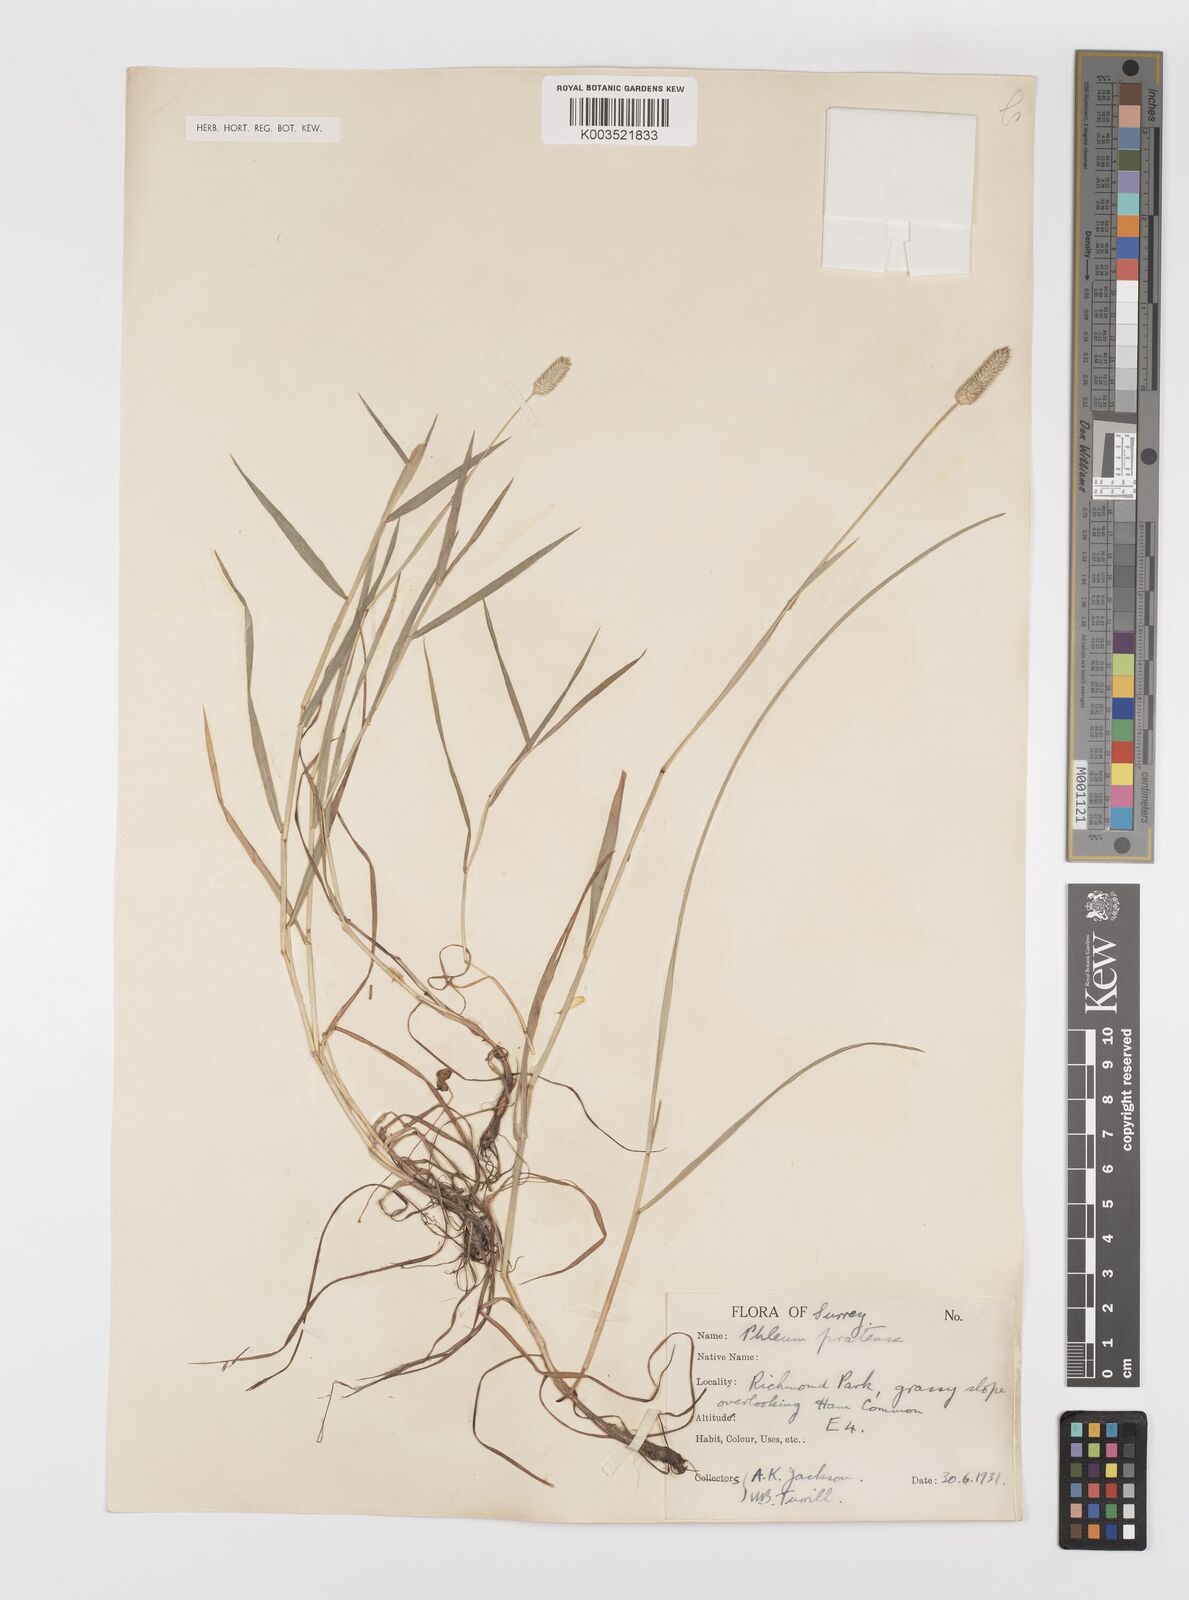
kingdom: Plantae
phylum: Tracheophyta
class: Liliopsida
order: Poales
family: Poaceae
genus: Phleum
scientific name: Phleum bertolonii
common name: Smaller cat's-tail
